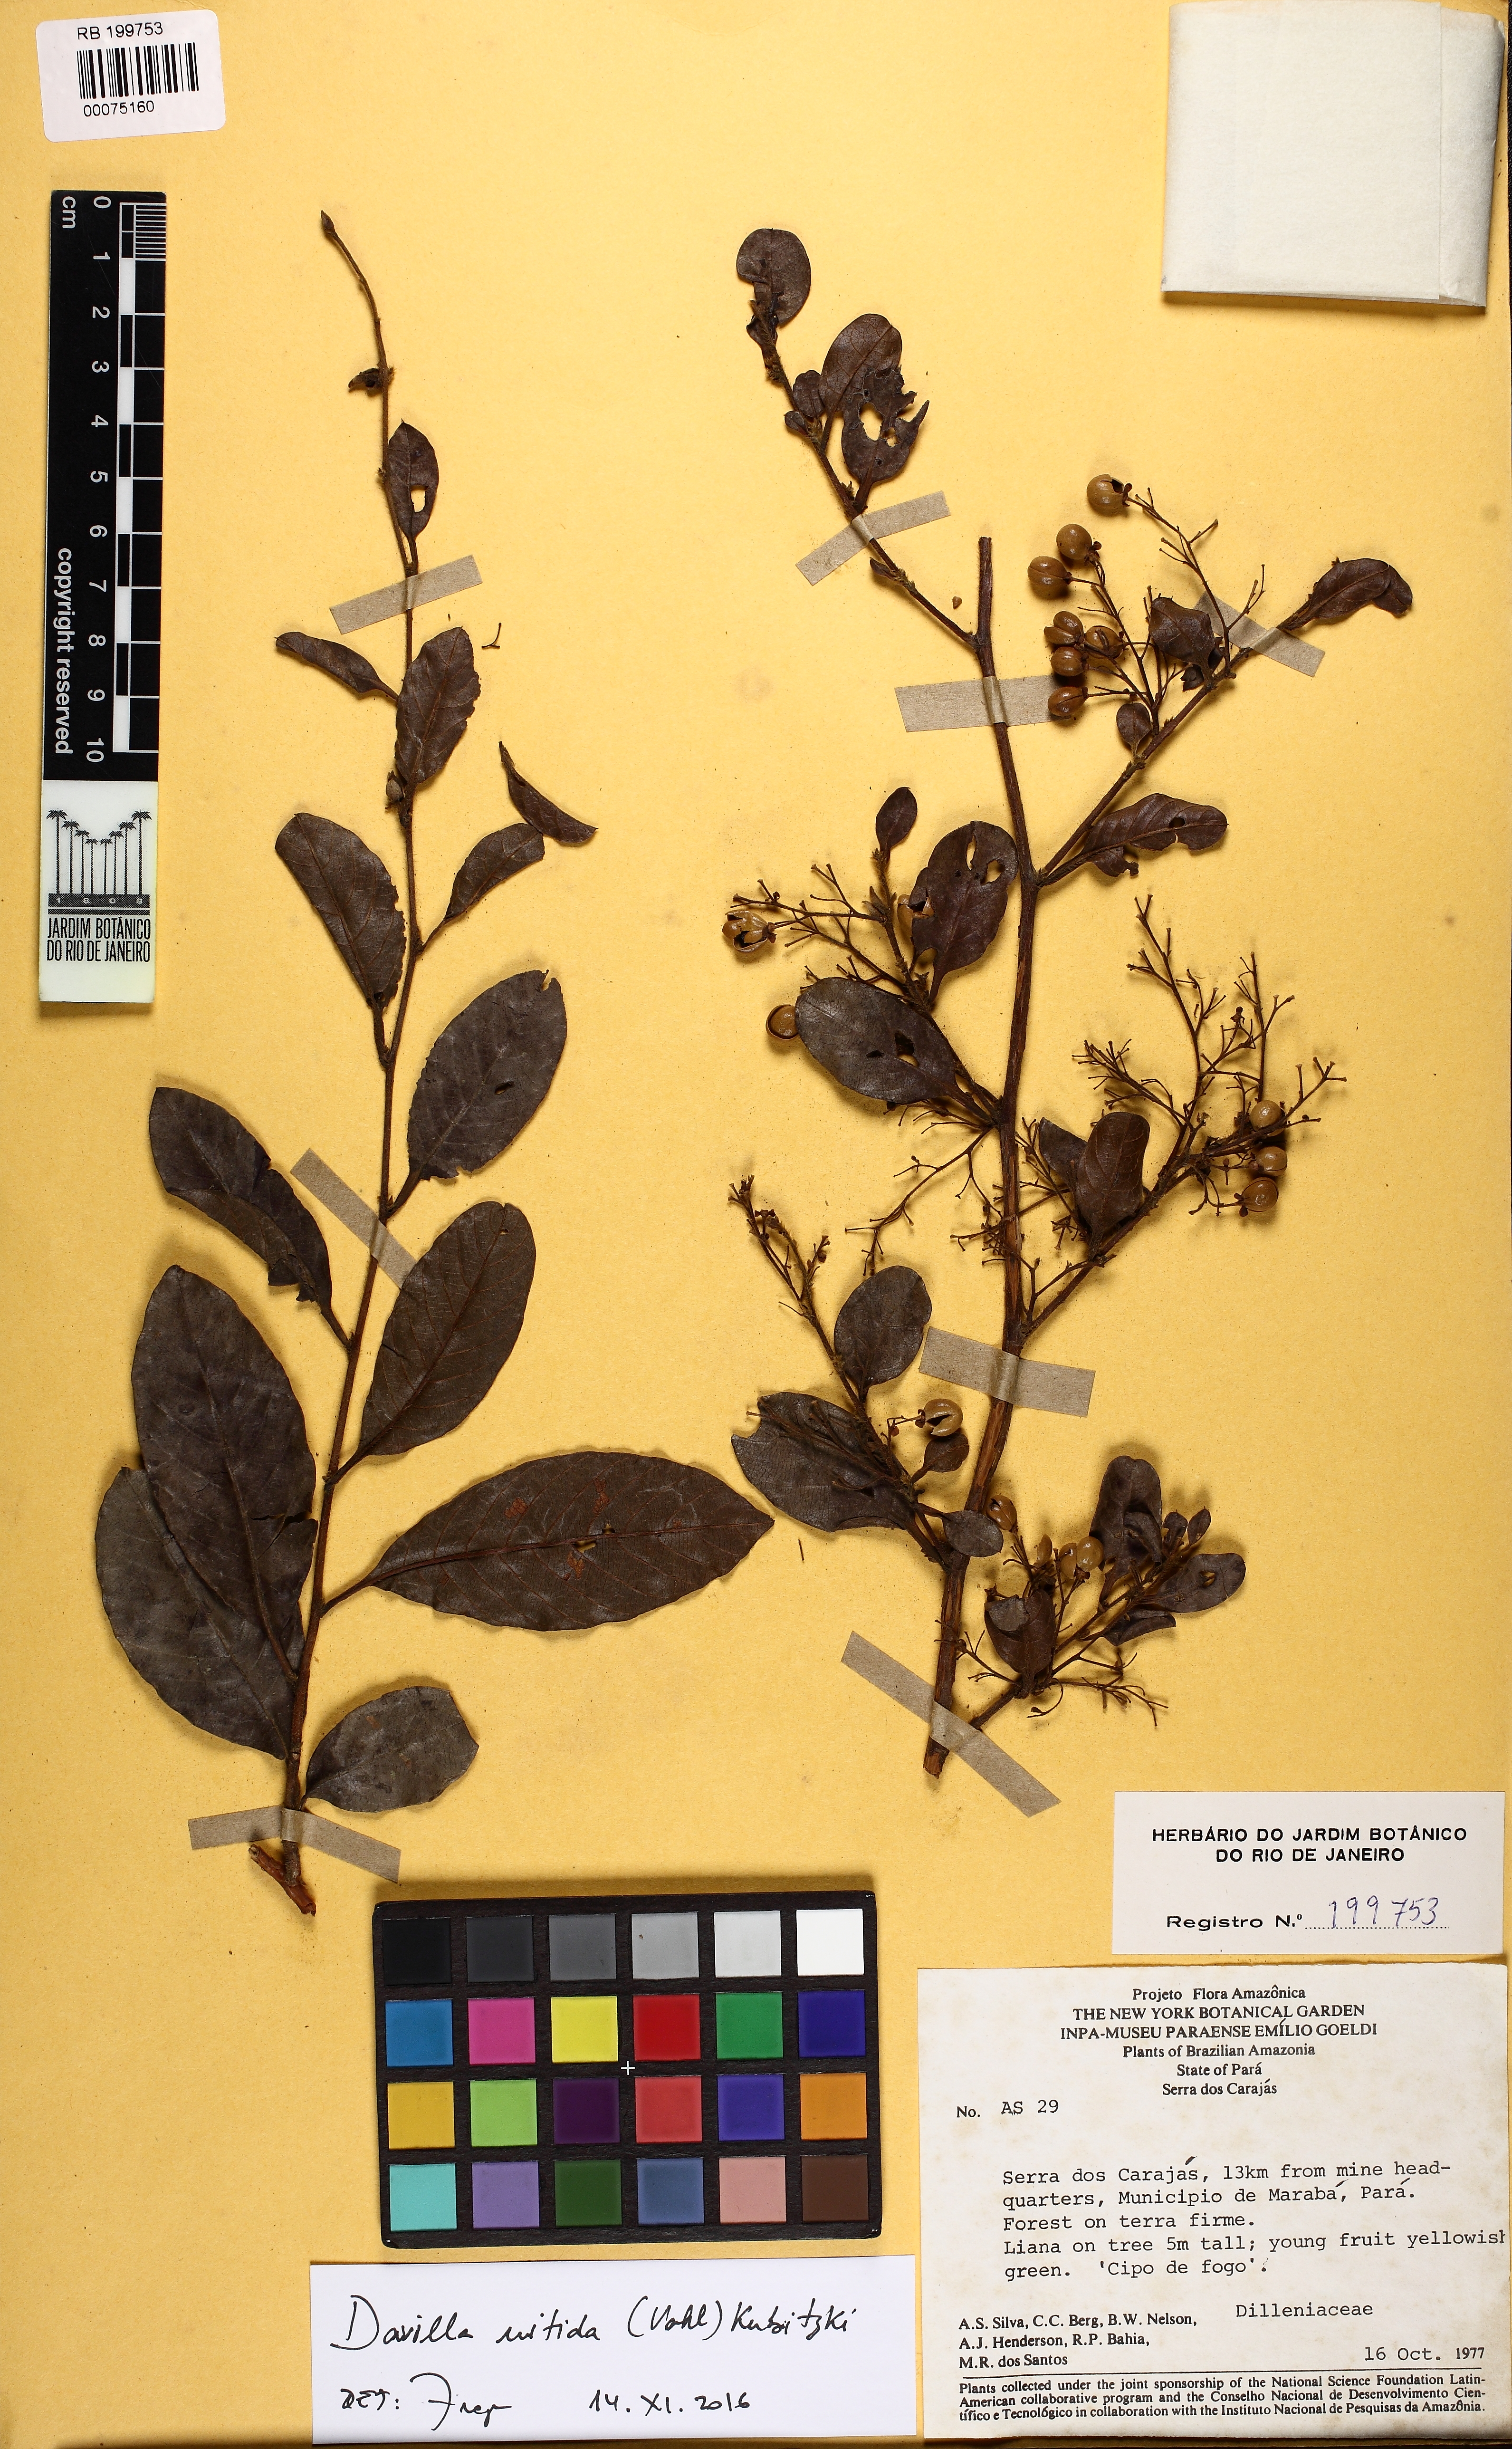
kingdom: Plantae
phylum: Tracheophyta
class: Magnoliopsida
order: Dilleniales
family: Dilleniaceae
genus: Davilla
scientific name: Davilla nitida
